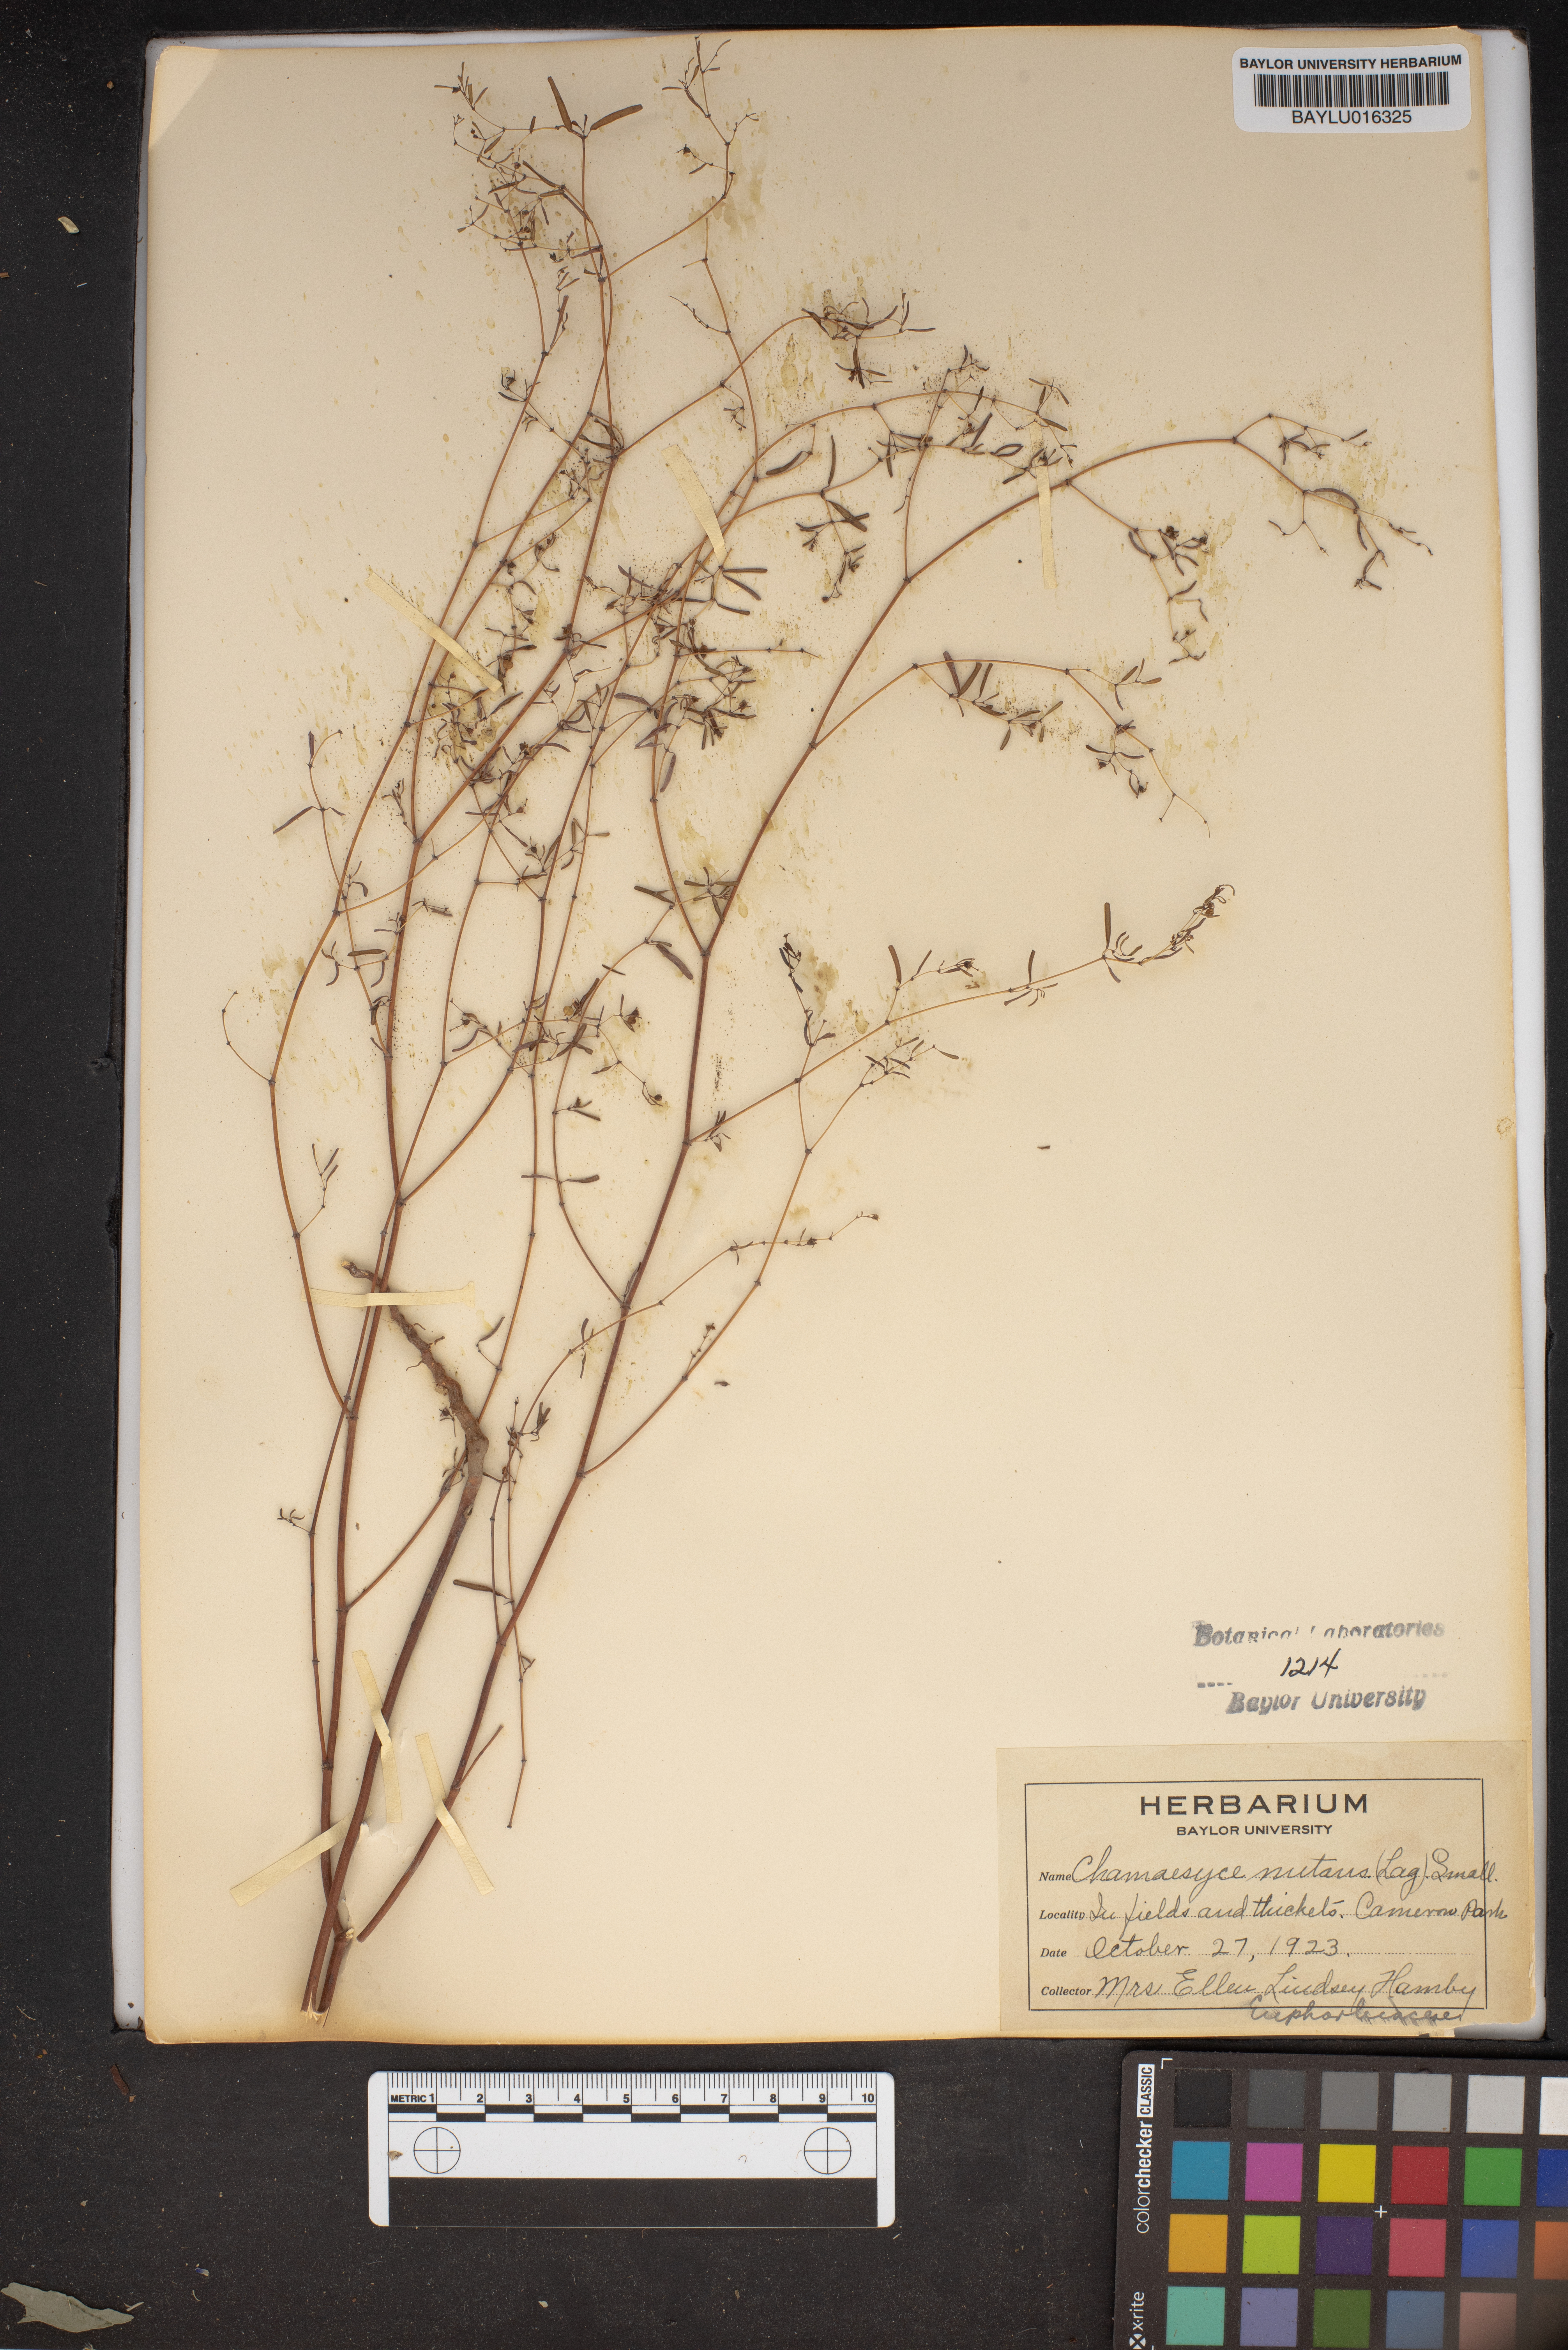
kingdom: Plantae
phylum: Tracheophyta
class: Magnoliopsida
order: Malpighiales
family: Euphorbiaceae
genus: Euphorbia
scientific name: Euphorbia nutans
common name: Eyebane
